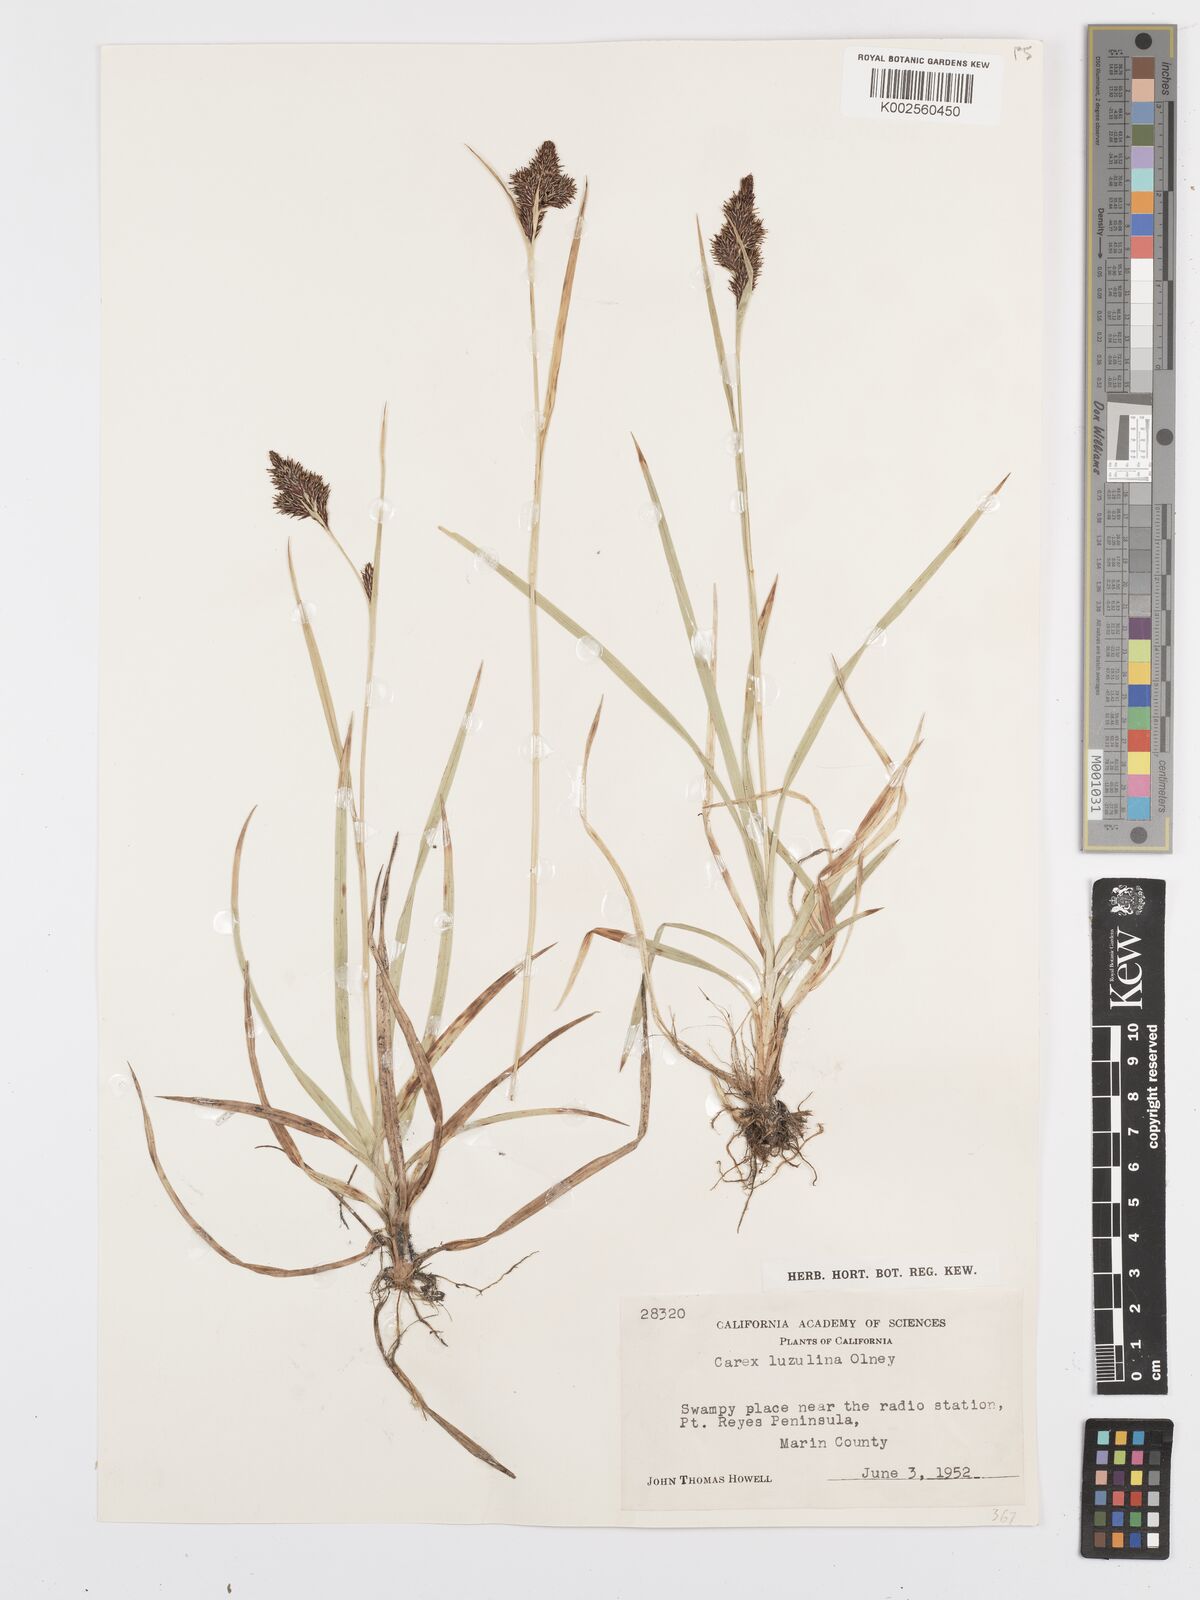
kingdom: Plantae
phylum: Tracheophyta
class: Liliopsida
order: Poales
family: Cyperaceae
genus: Carex
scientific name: Carex luzulina
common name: Spring sedge
